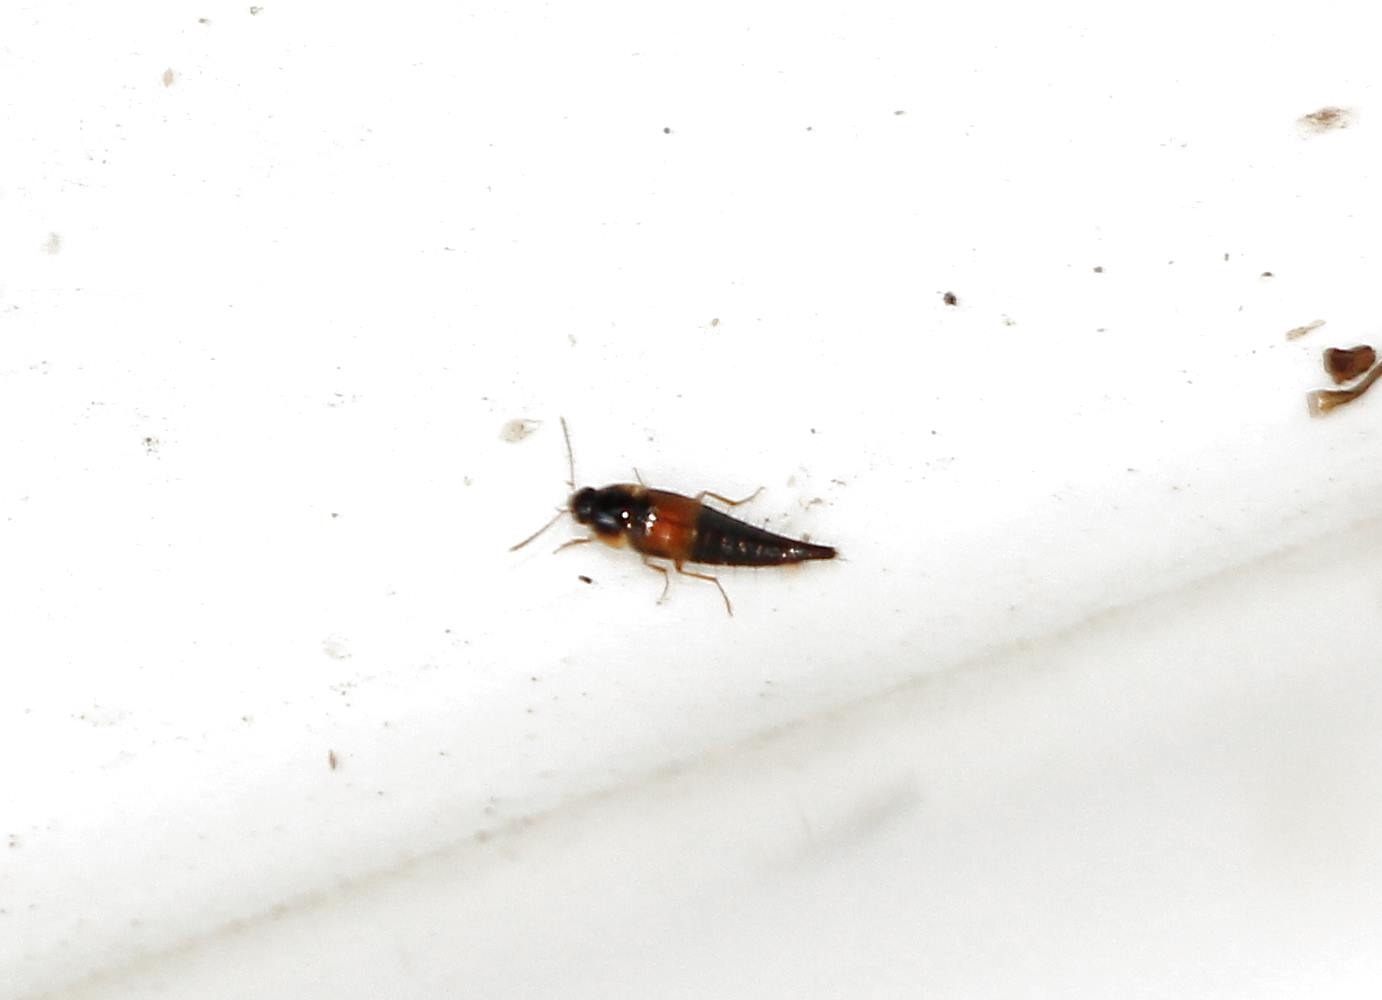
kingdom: Animalia
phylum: Arthropoda
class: Insecta
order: Coleoptera
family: Staphylinidae
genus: Tachyporus
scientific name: Tachyporus hypnorum
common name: Sortplettet agerrovbille
